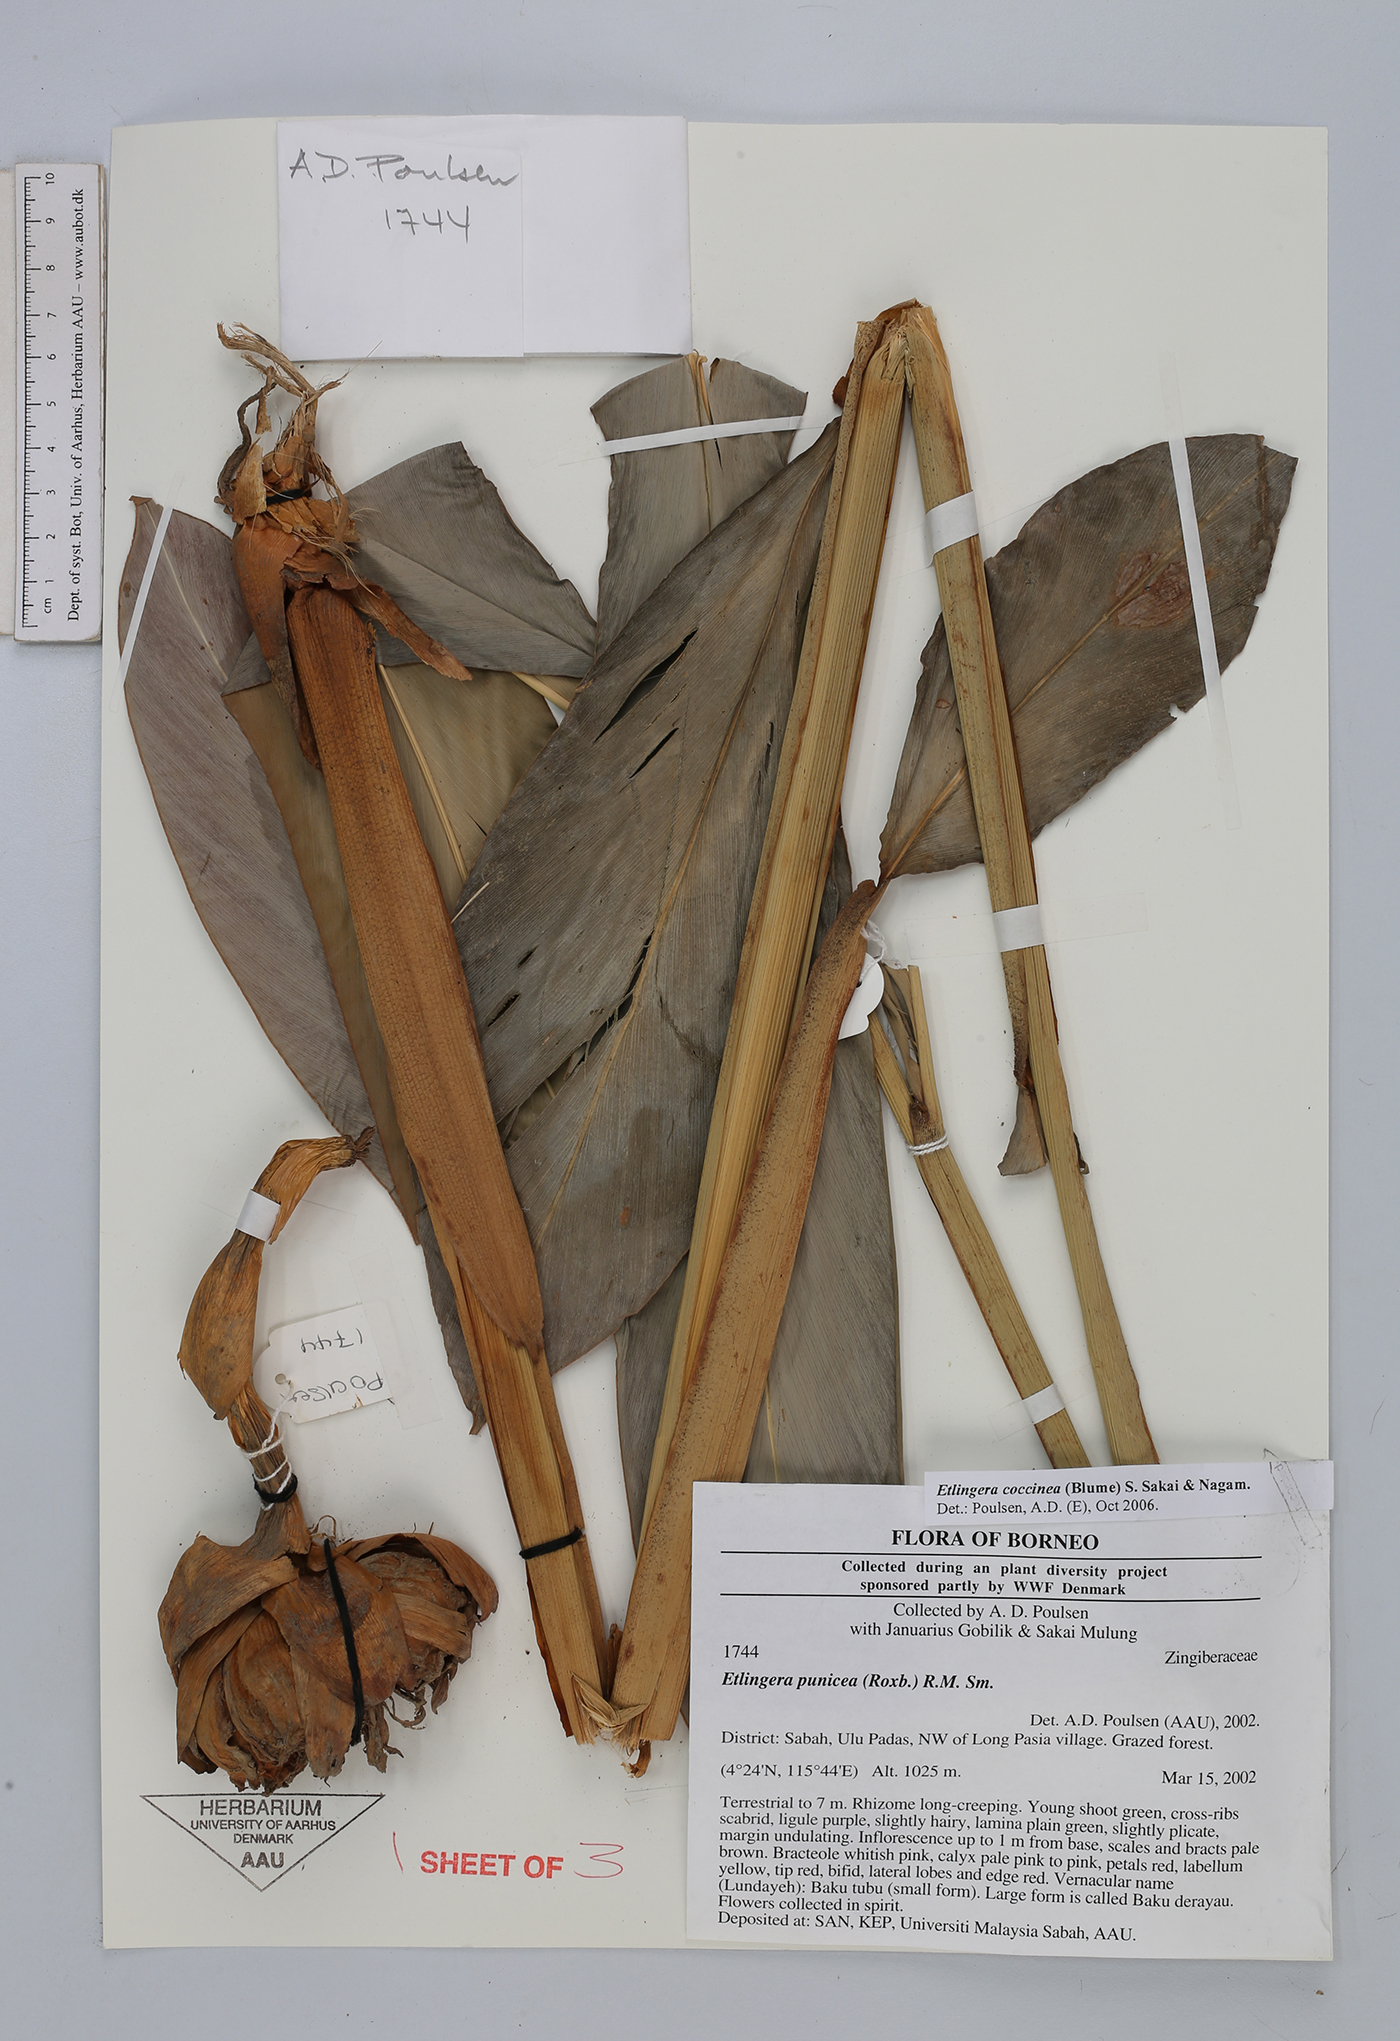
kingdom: Plantae
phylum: Tracheophyta
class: Liliopsida
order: Zingiberales
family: Zingiberaceae
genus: Etlingera
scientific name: Etlingera coccinea
